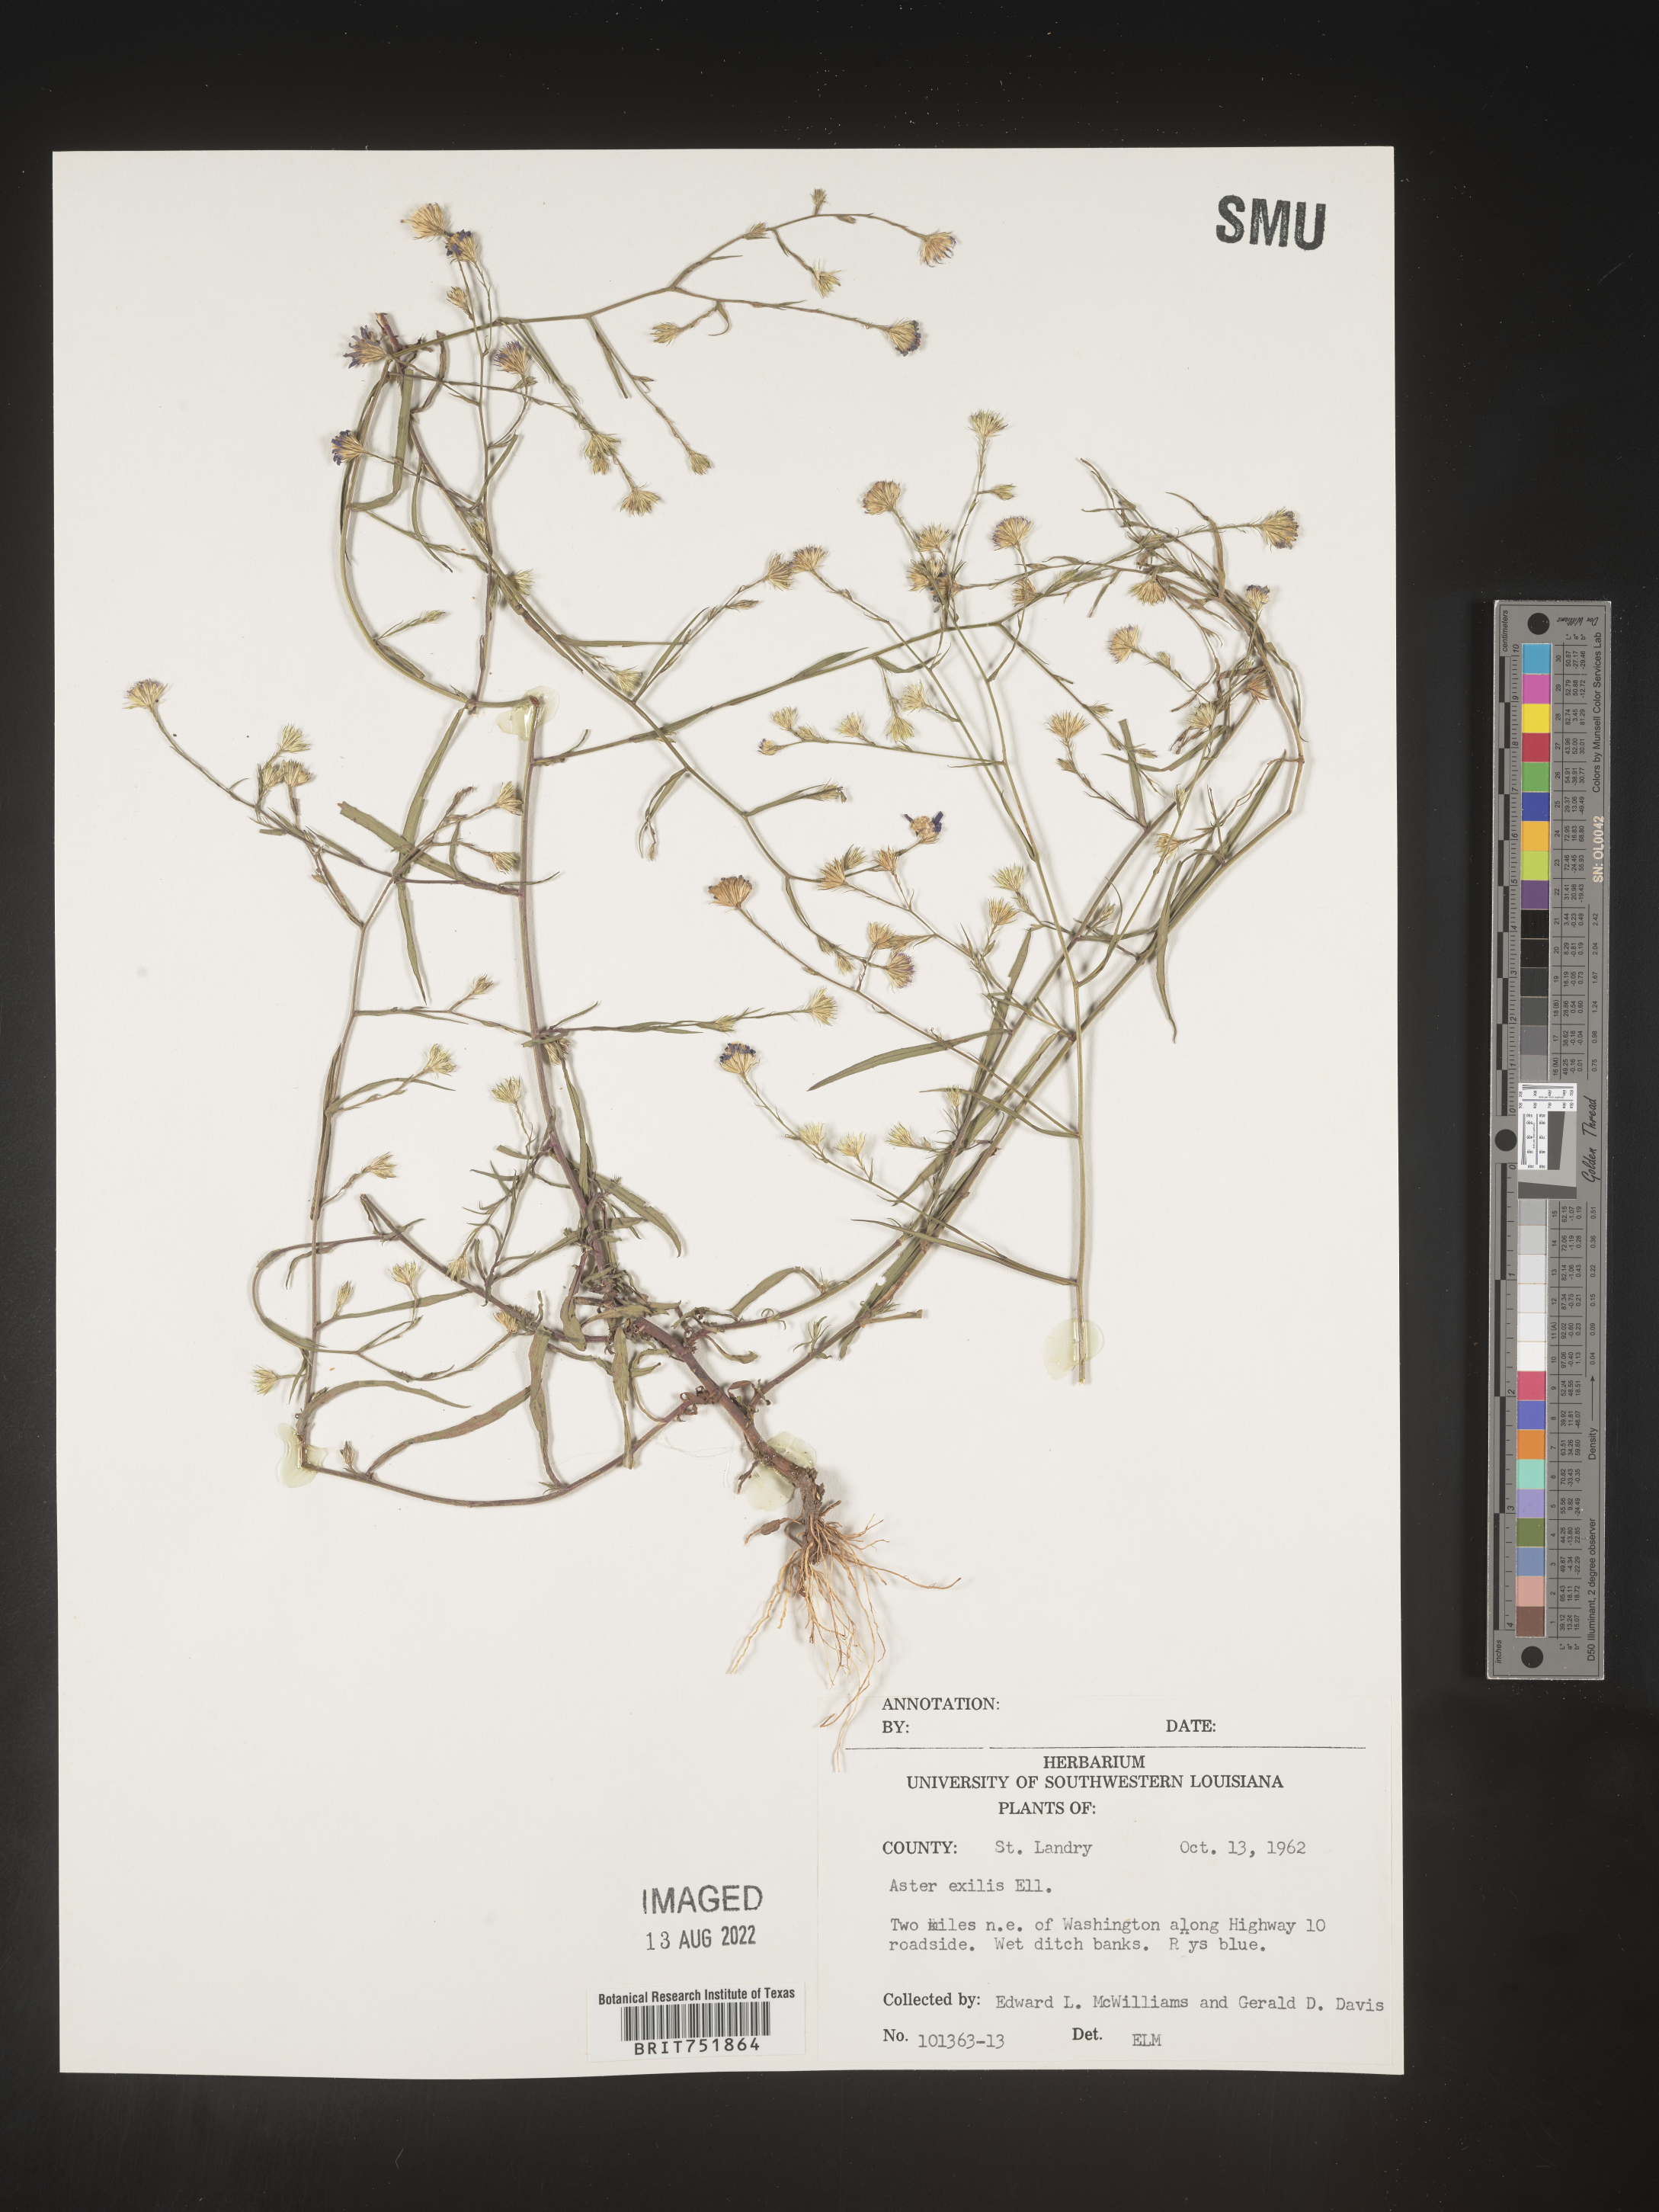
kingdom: Plantae
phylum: Tracheophyta
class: Magnoliopsida
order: Asterales
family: Asteraceae
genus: Symphyotrichum
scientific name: Symphyotrichum divaricatum
